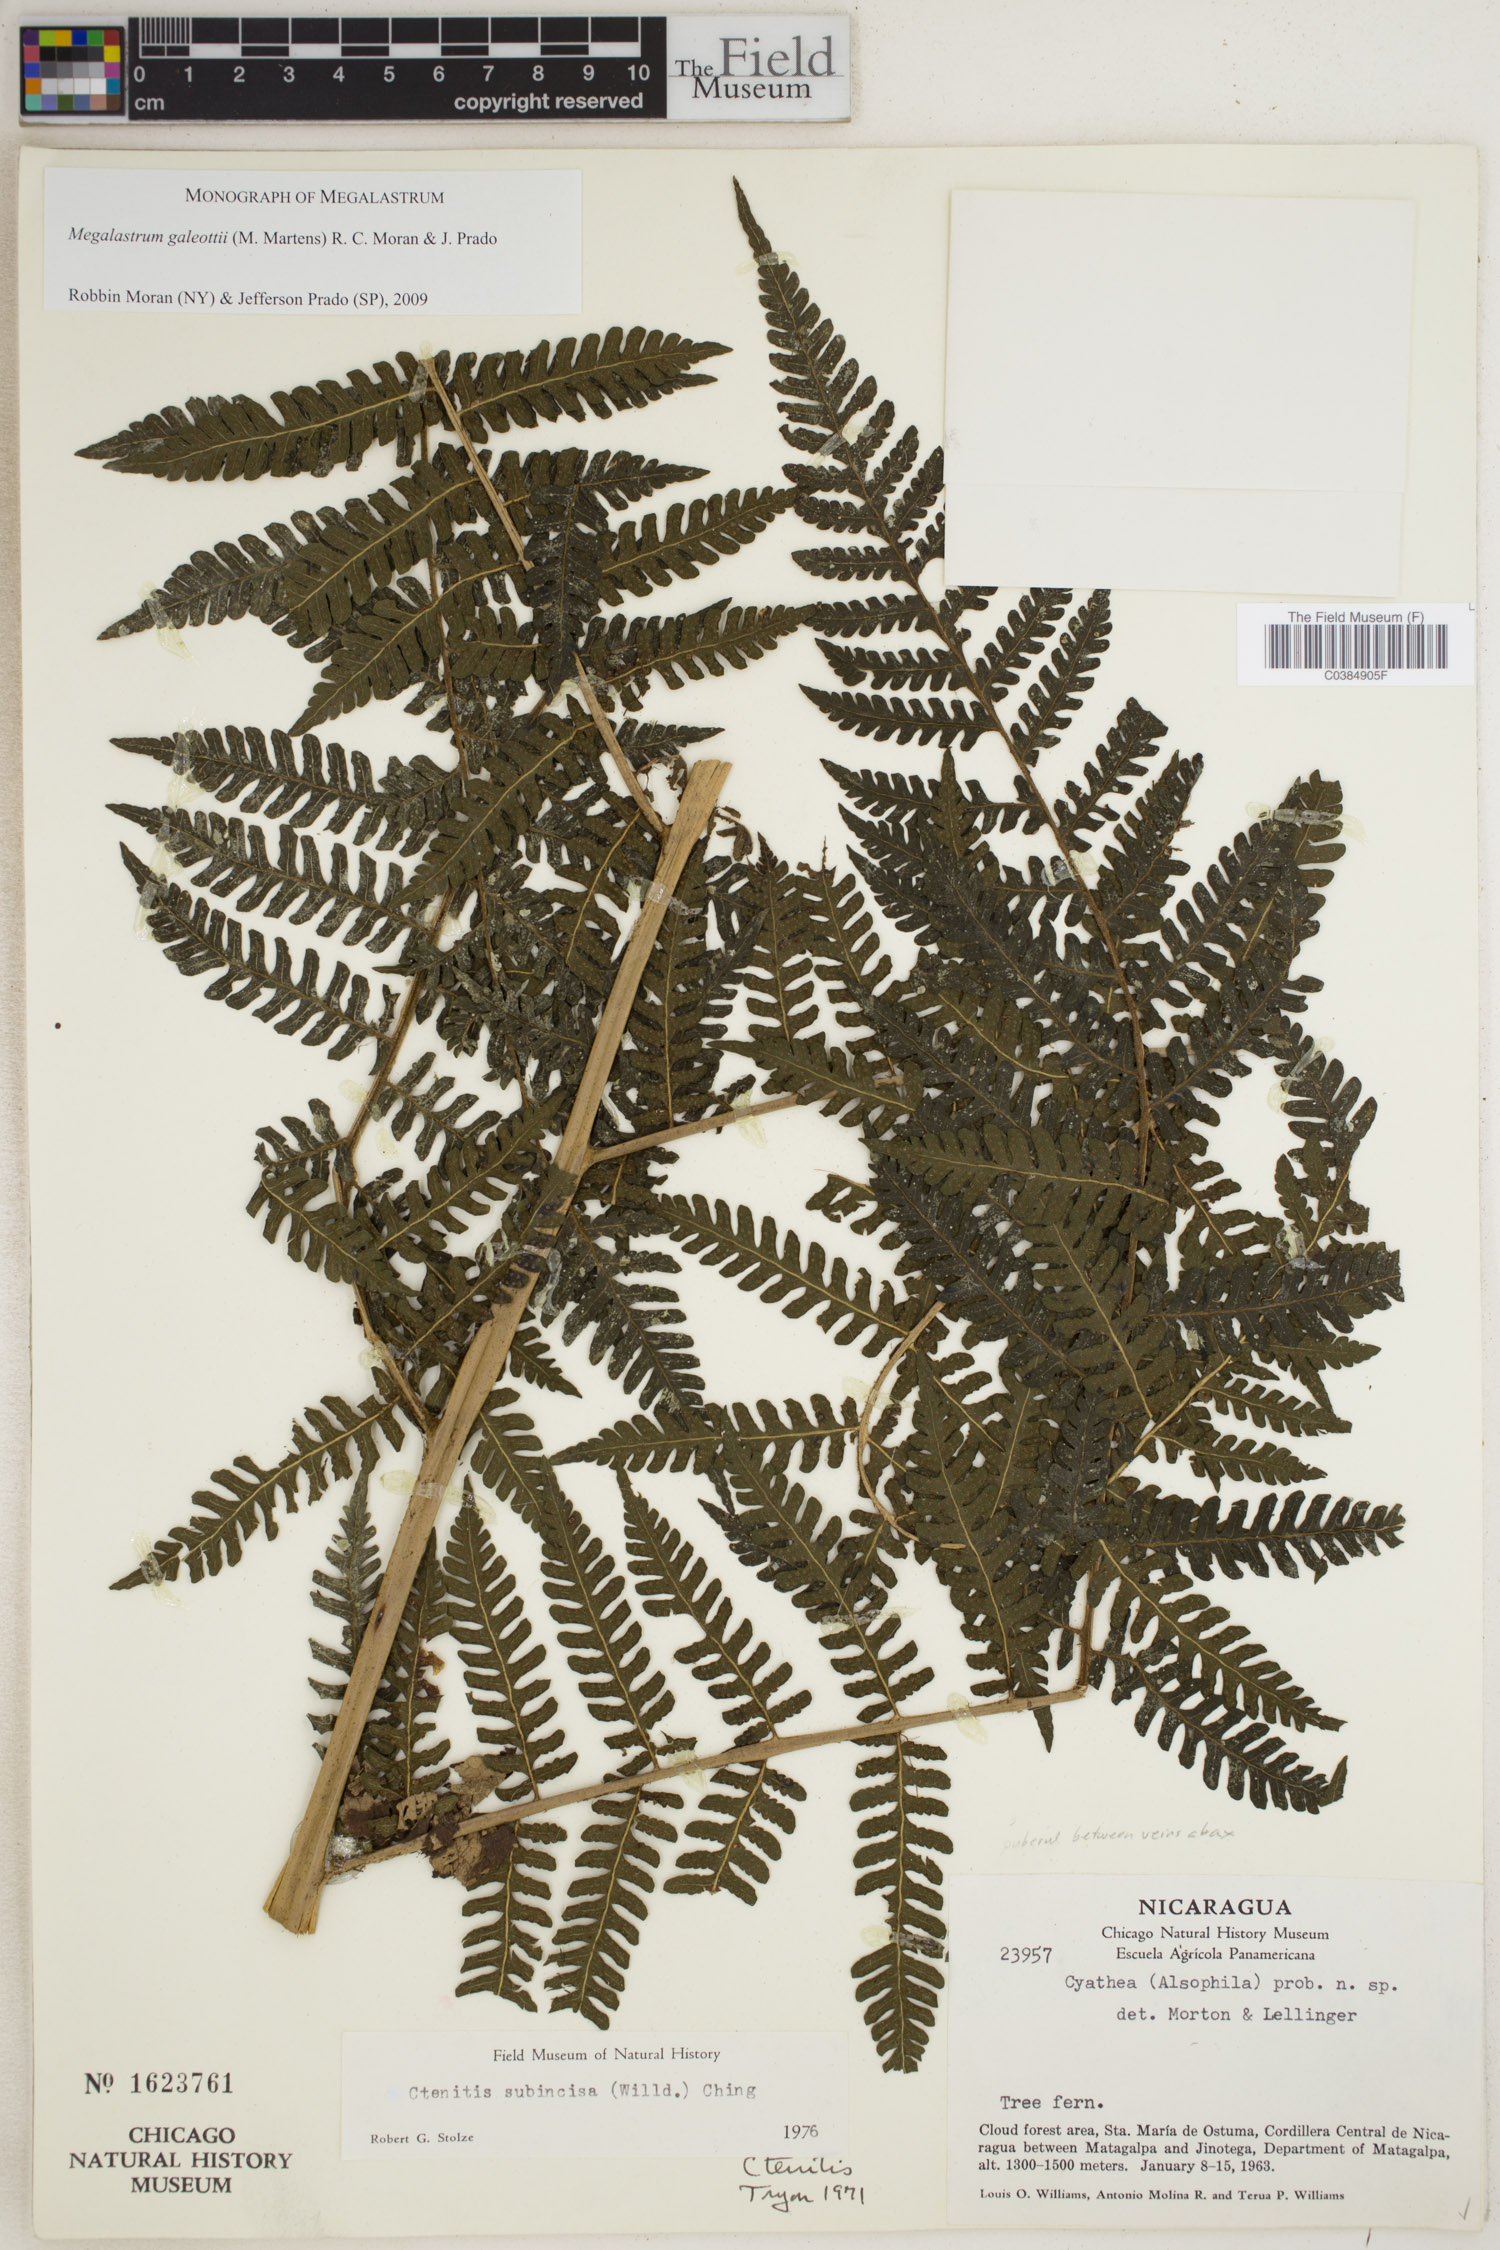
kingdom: Plantae
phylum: Tracheophyta
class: Polypodiopsida
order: Polypodiales
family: Dryopteridaceae
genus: Megalastrum
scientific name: Megalastrum galeottii
